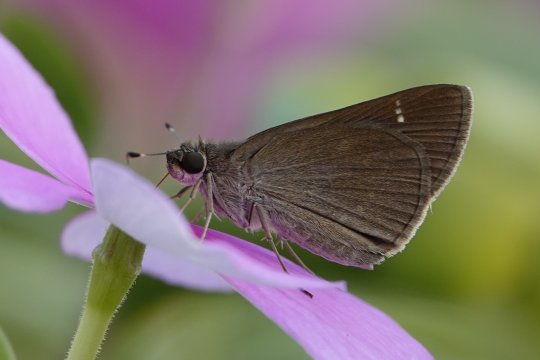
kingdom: Animalia
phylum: Arthropoda
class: Insecta
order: Lepidoptera
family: Hesperiidae
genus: Lerodea
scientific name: Lerodea eufala
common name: Eufala Skipper
